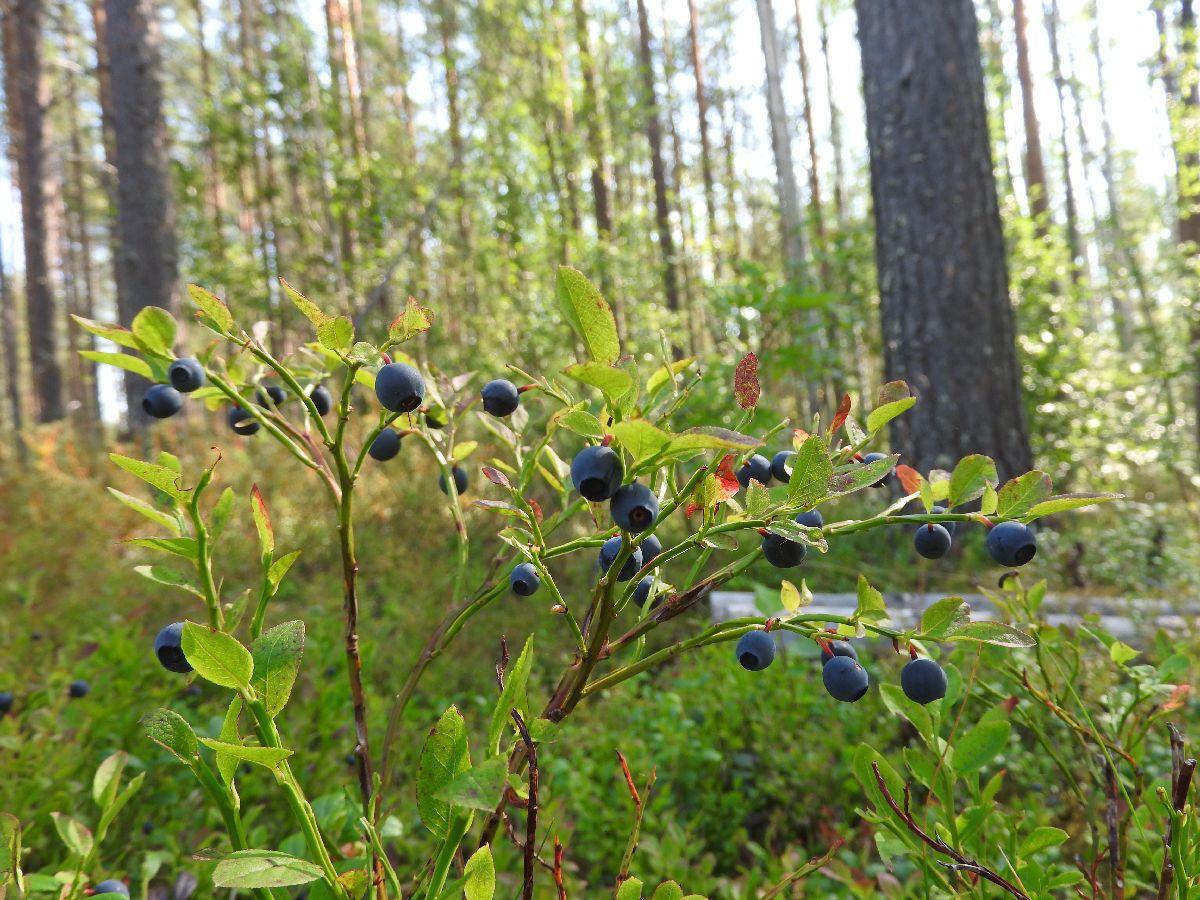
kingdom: Plantae
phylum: Tracheophyta
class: Magnoliopsida
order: Ericales
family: Ericaceae
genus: Vaccinium
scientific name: Vaccinium myrtillus
